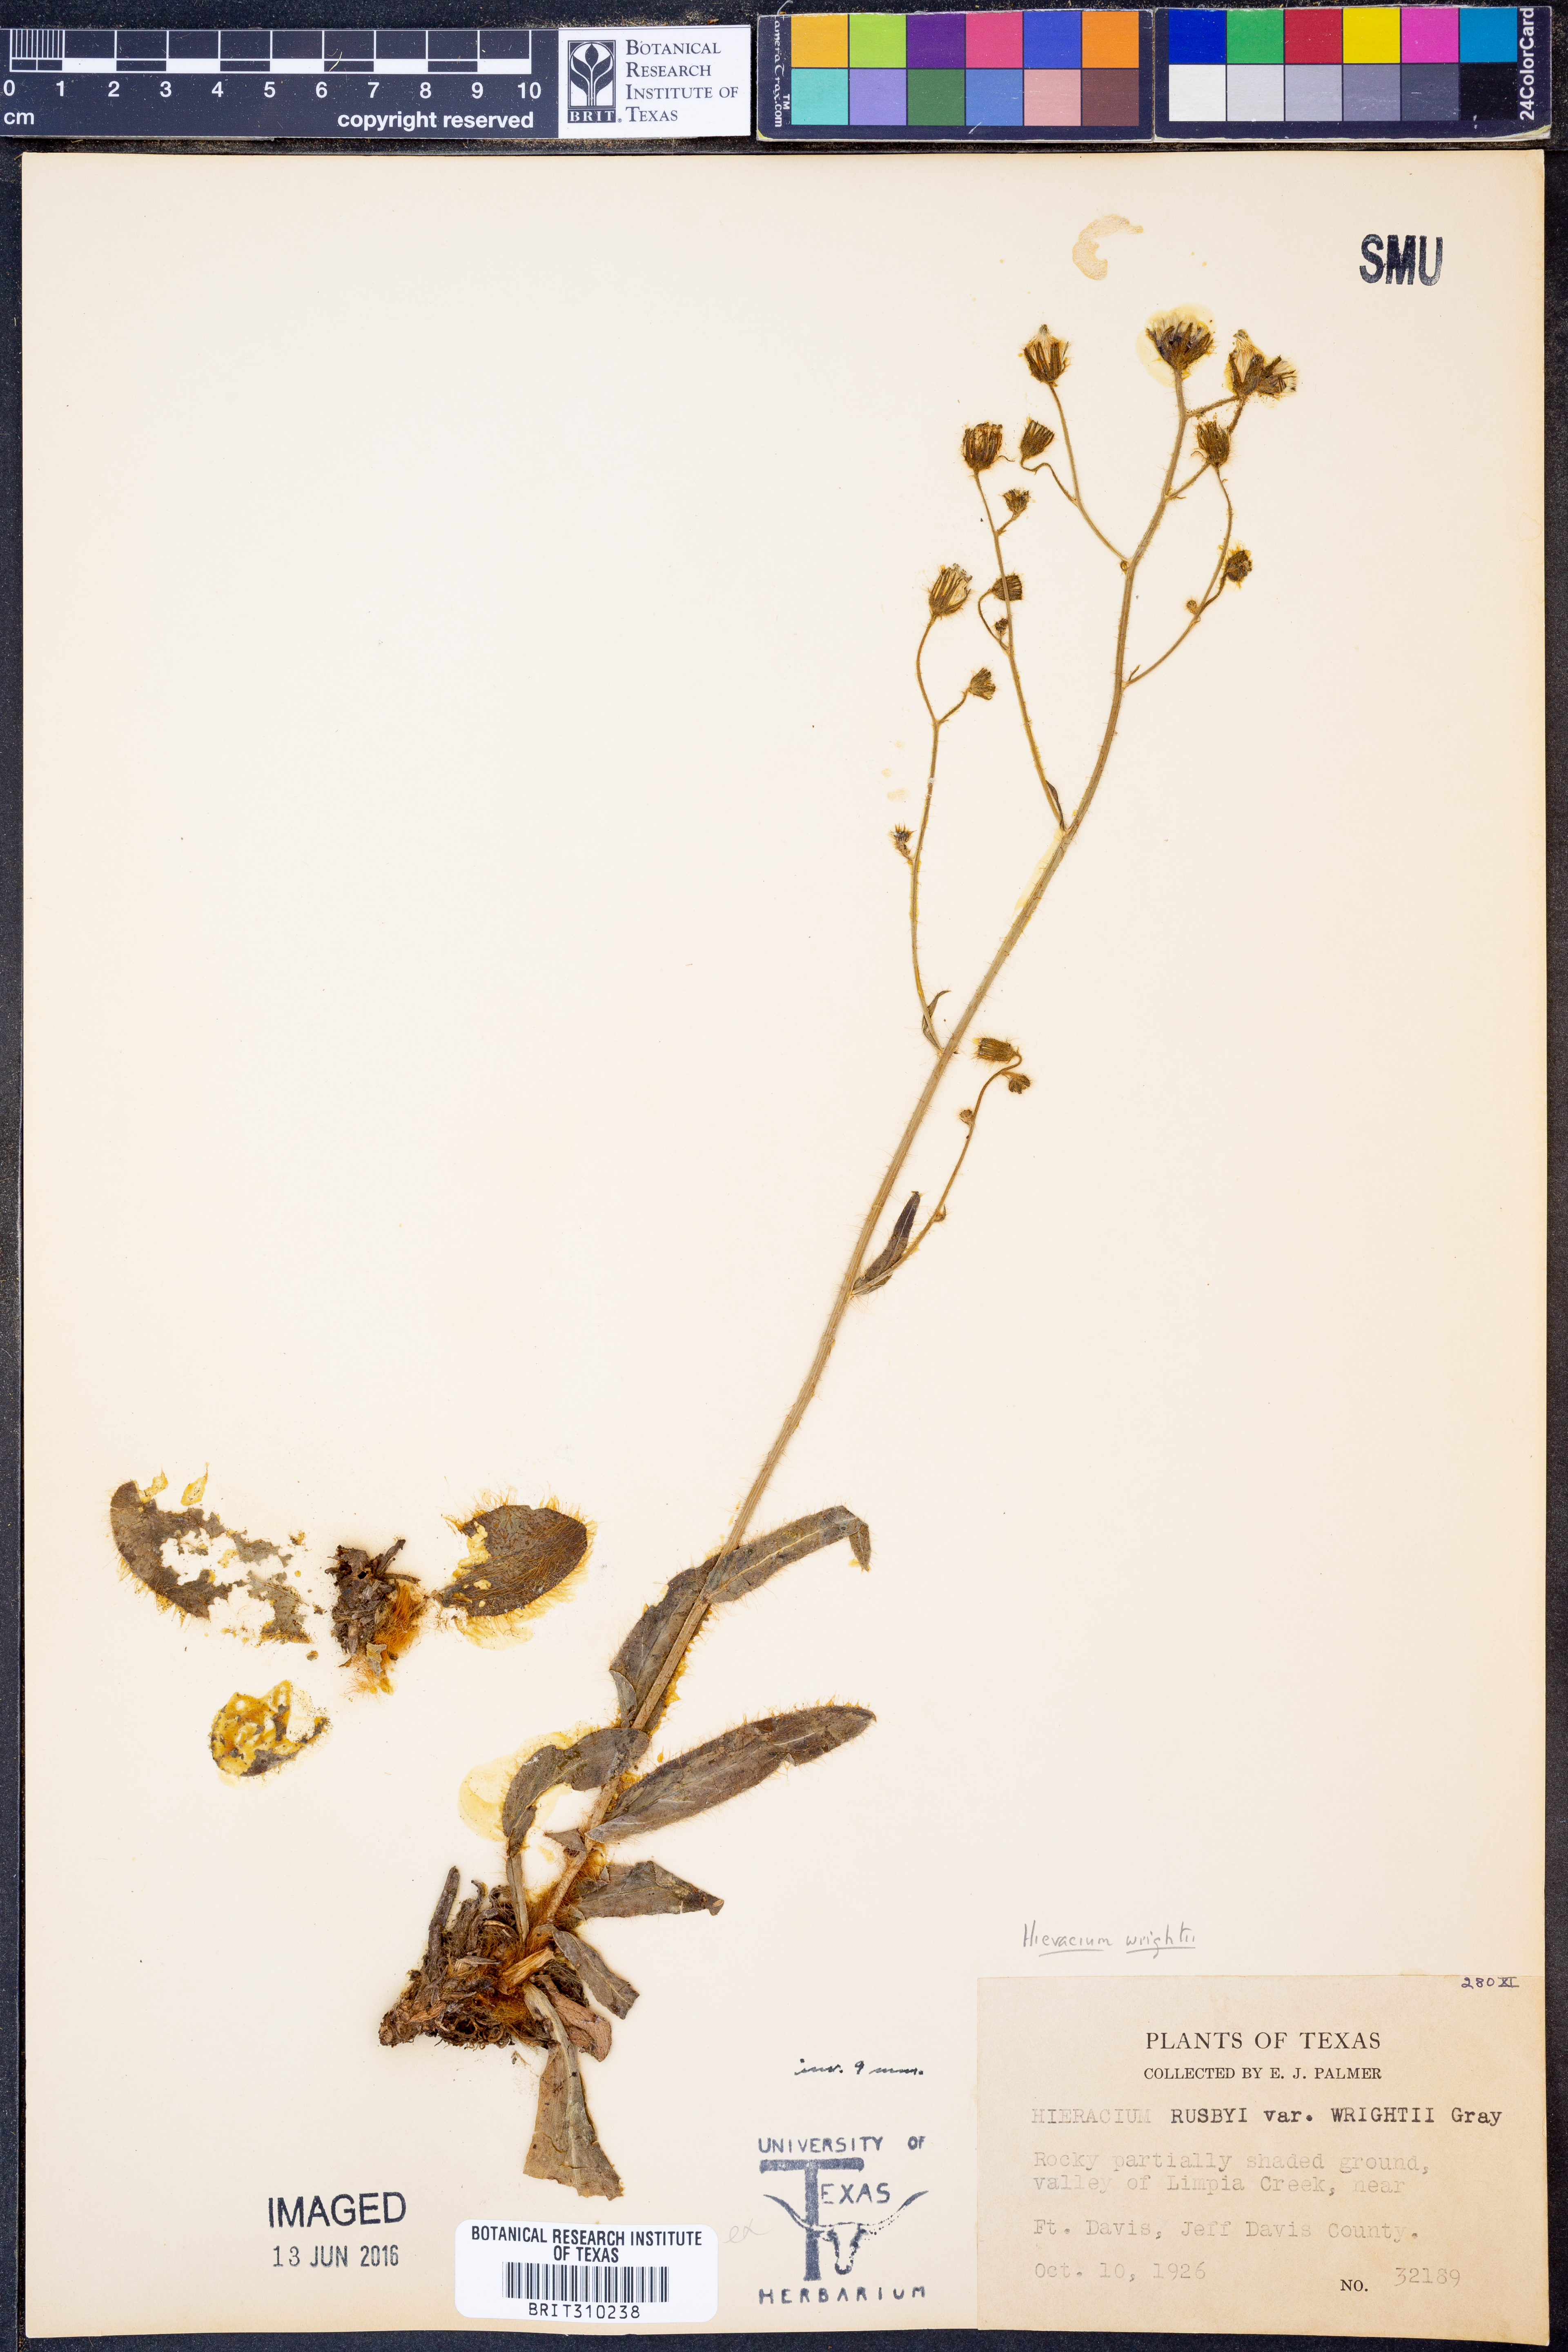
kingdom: Plantae
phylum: Tracheophyta
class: Magnoliopsida
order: Asterales
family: Asteraceae
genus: Hieracium
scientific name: Hieracium friesii
